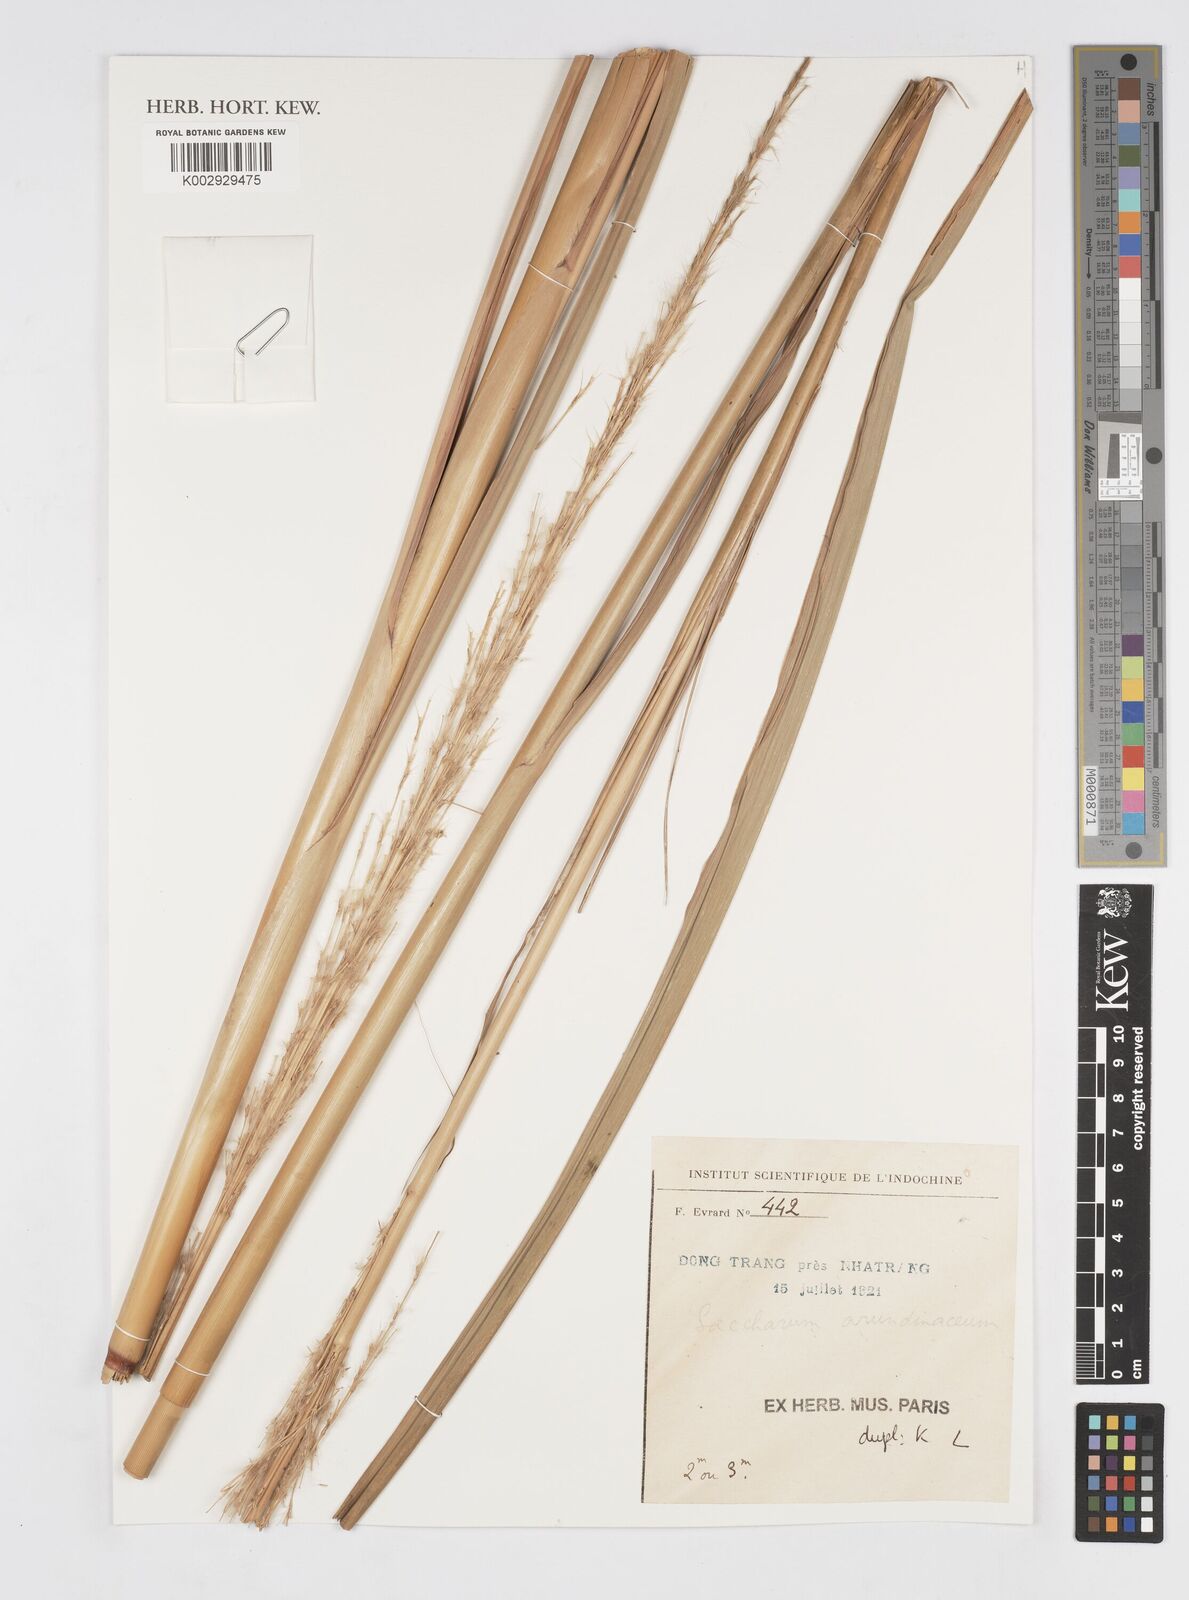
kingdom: Plantae
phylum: Tracheophyta
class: Liliopsida
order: Poales
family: Poaceae
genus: Tripidium
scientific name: Tripidium arundinaceum
